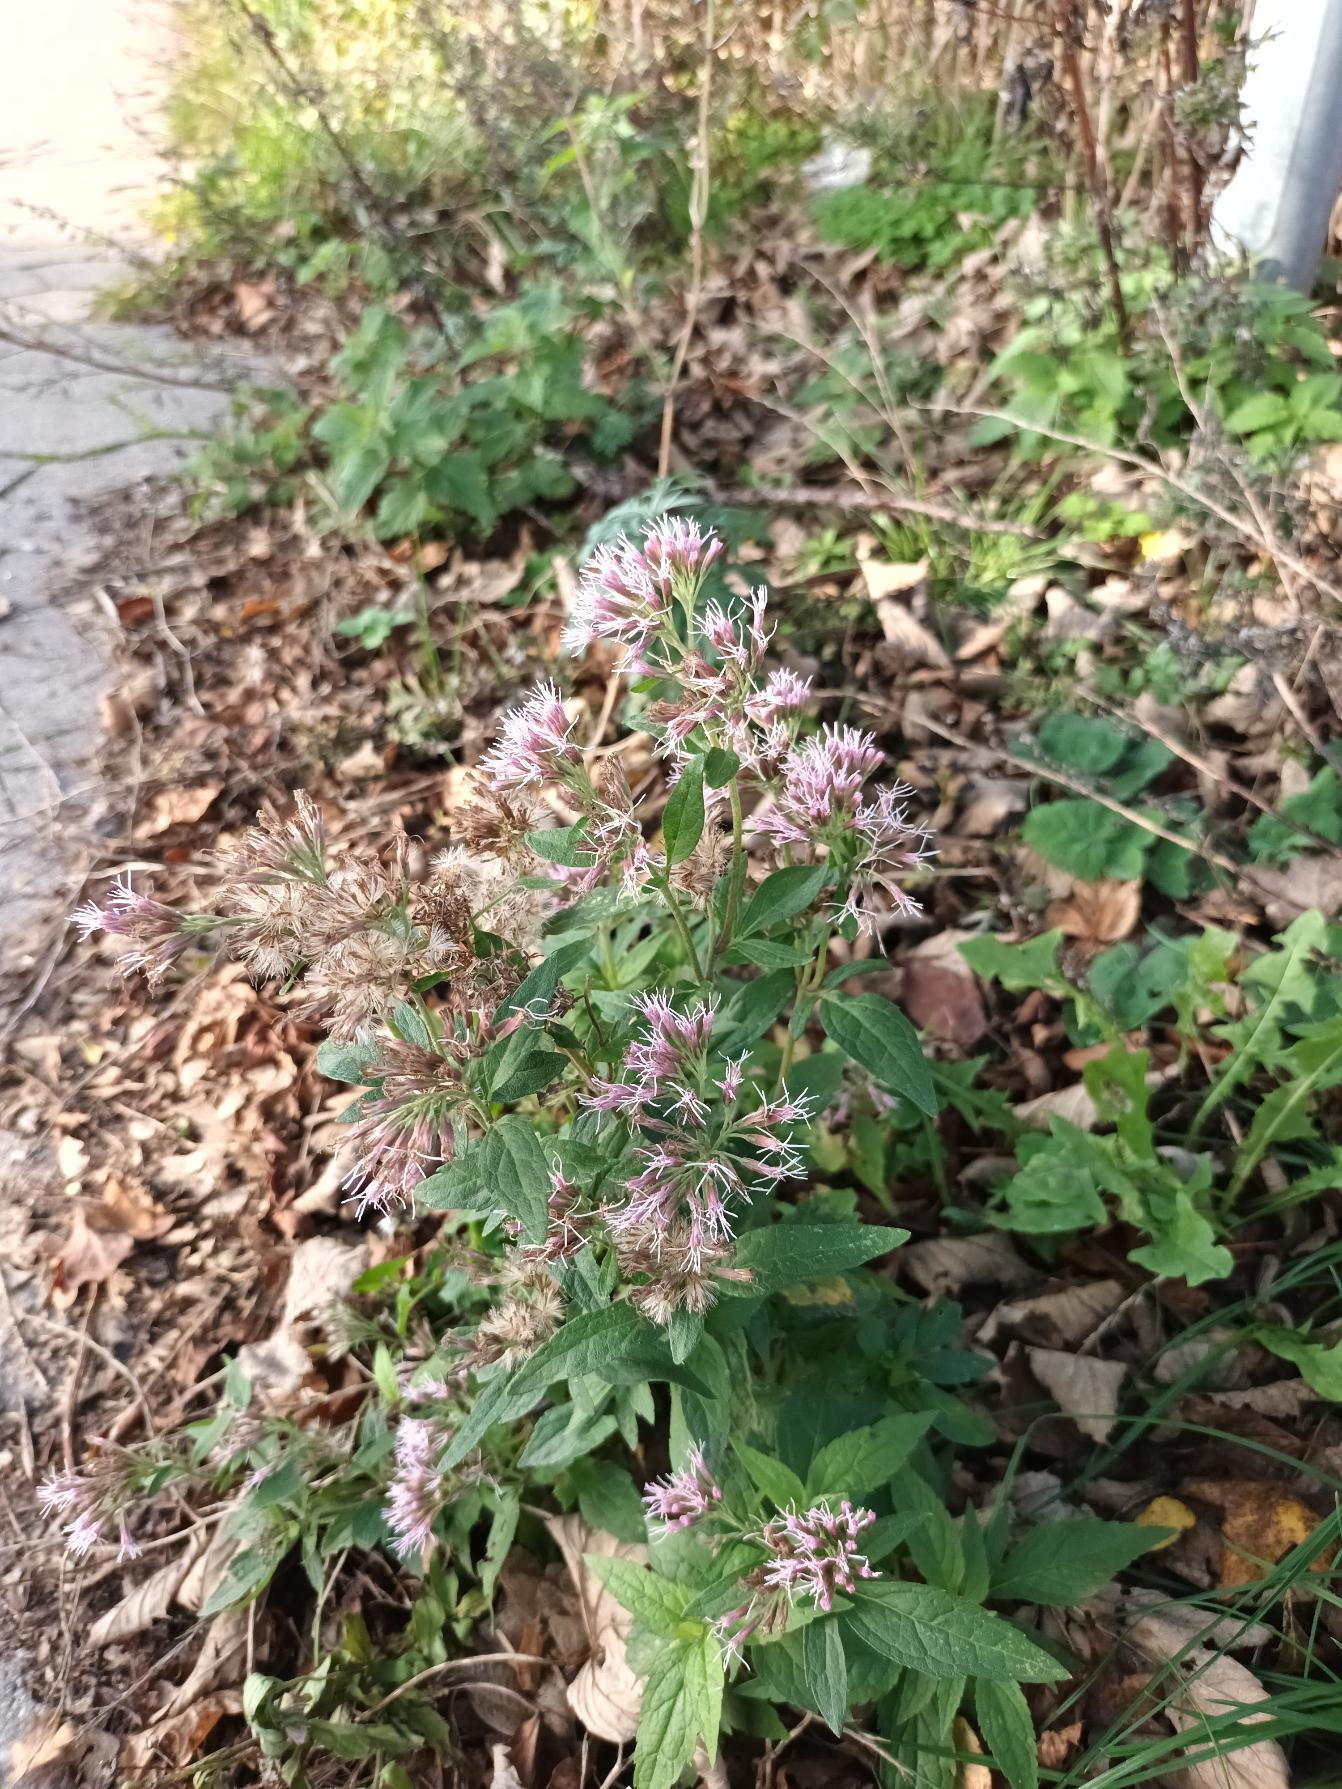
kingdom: Plantae
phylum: Tracheophyta
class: Magnoliopsida
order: Asterales
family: Asteraceae
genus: Eupatorium
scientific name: Eupatorium cannabinum
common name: Hjortetrøst
